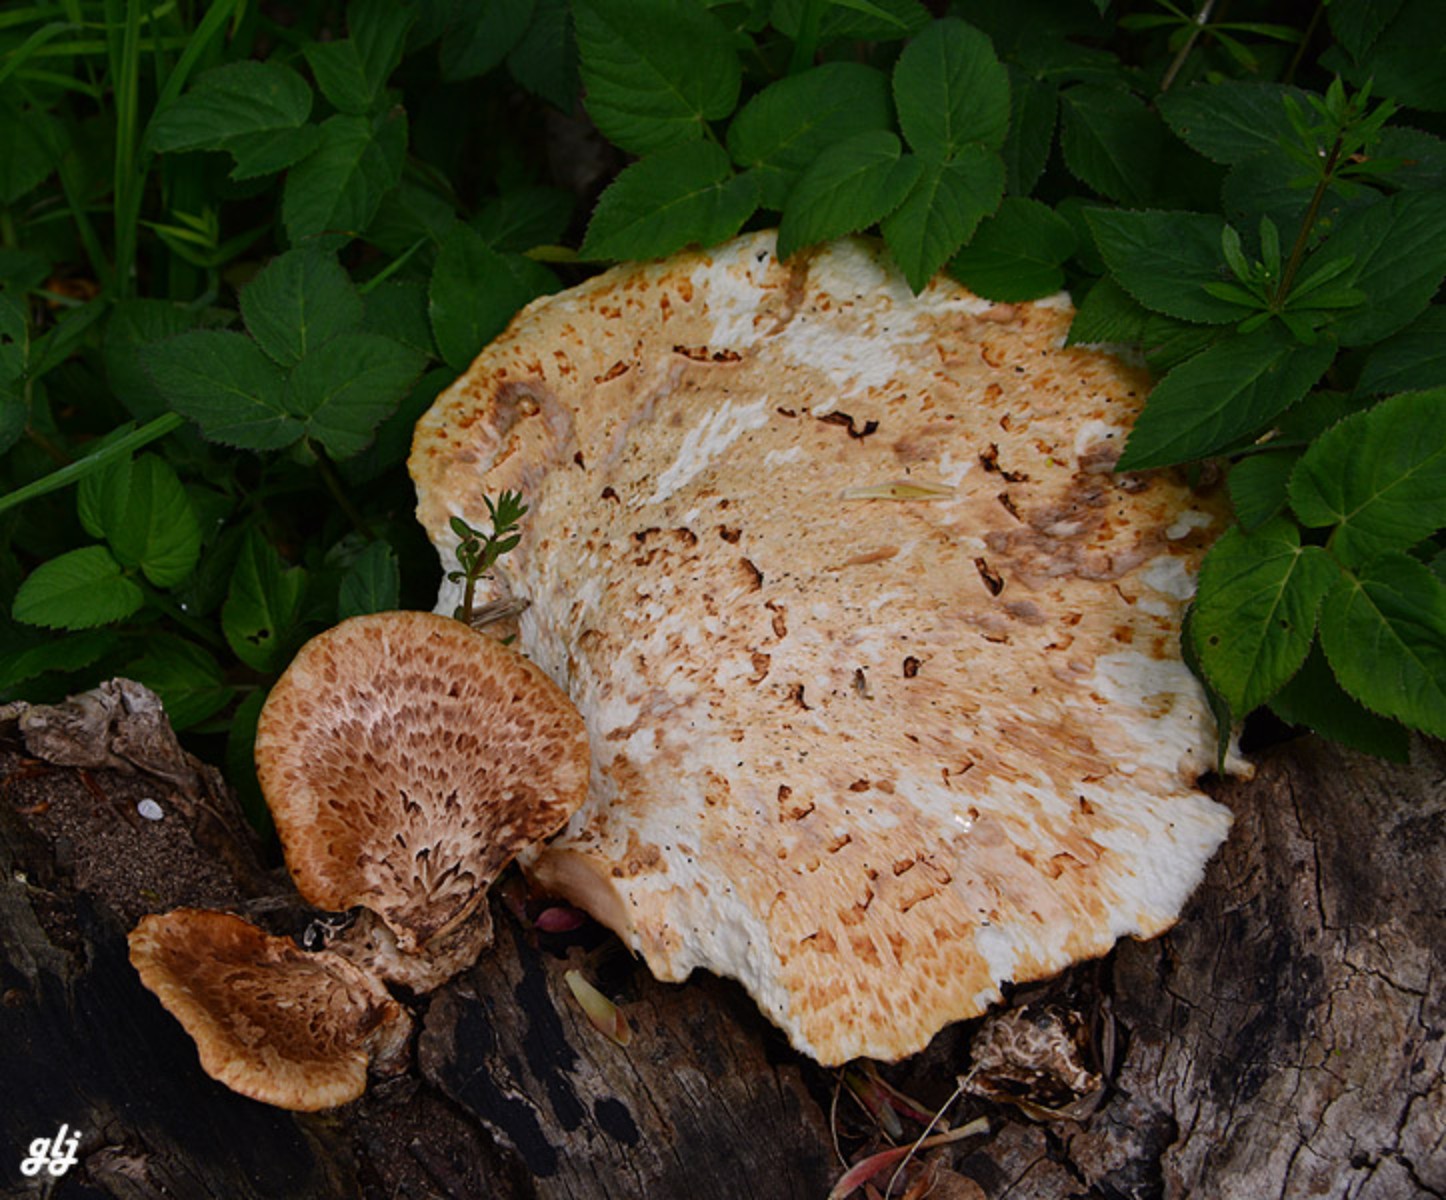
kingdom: Fungi
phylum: Basidiomycota
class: Agaricomycetes
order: Polyporales
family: Polyporaceae
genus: Cerioporus
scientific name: Cerioporus squamosus
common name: skællet stilkporesvamp
